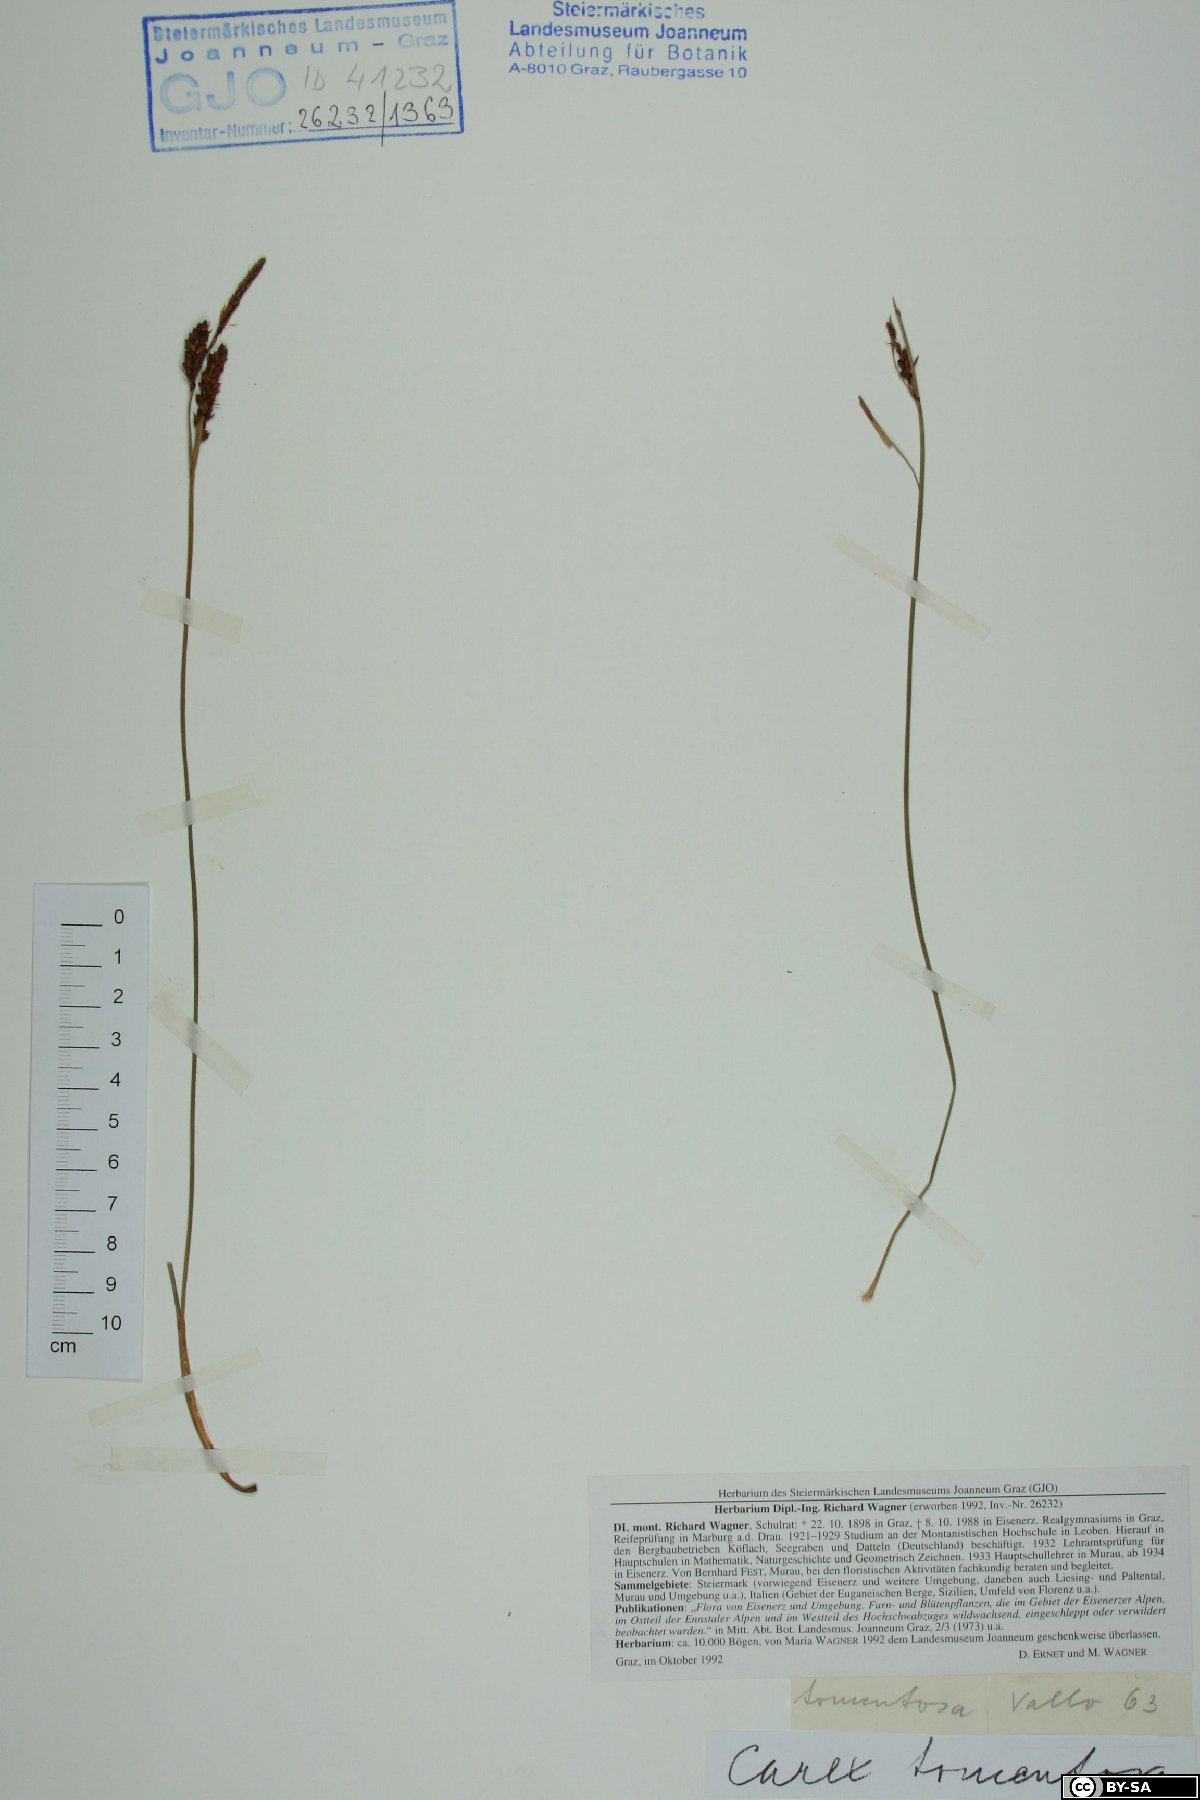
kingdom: Plantae
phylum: Tracheophyta
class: Liliopsida
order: Poales
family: Cyperaceae
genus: Carex
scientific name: Carex tomentosa
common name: Downy-fruited sedge
